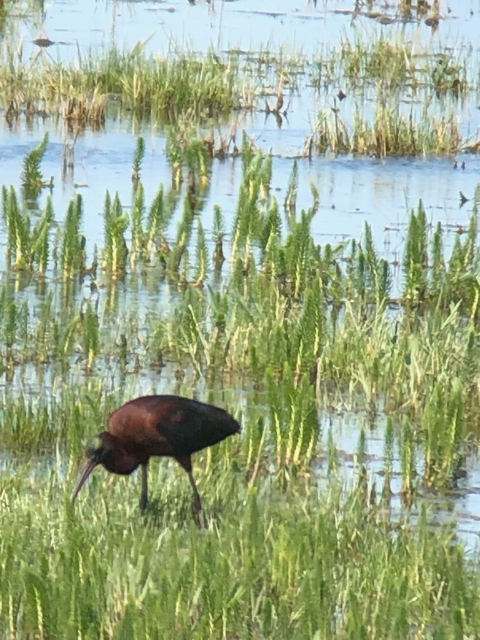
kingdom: Animalia
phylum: Chordata
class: Aves
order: Pelecaniformes
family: Threskiornithidae
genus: Plegadis
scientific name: Plegadis falcinellus
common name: Sort ibis
